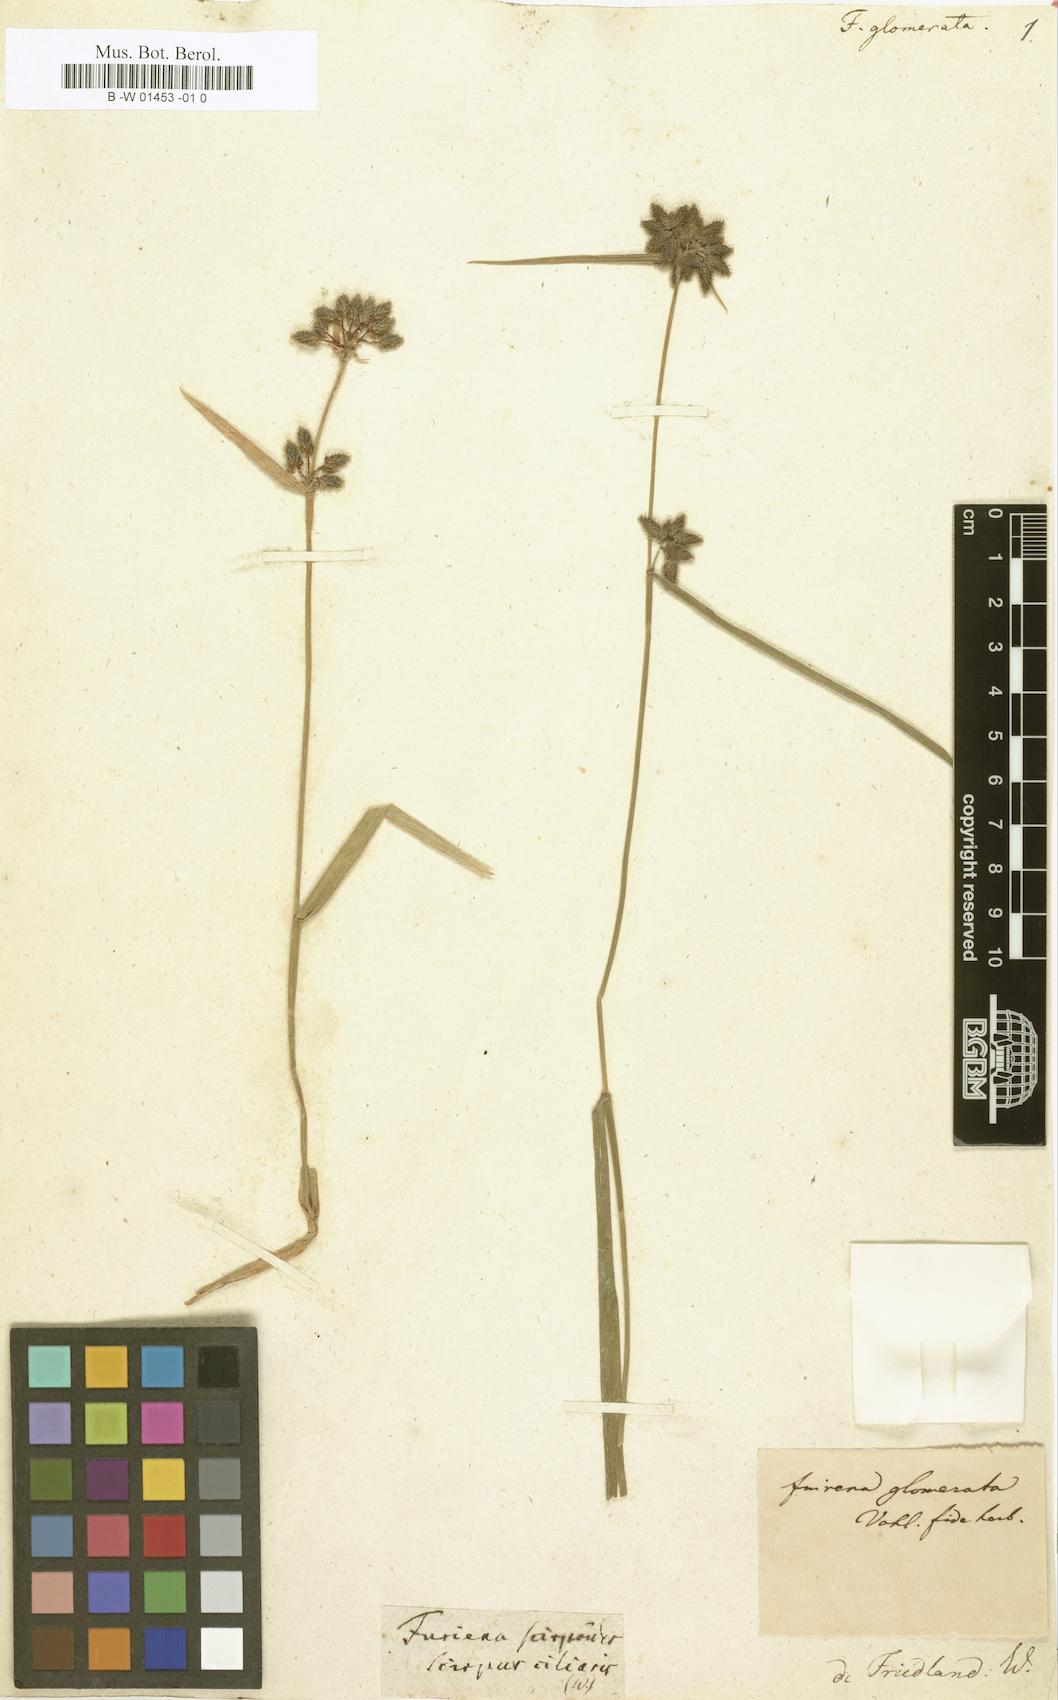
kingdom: Plantae
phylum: Tracheophyta
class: Liliopsida
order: Poales
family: Cyperaceae
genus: Fuirena
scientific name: Fuirena umbellata
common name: Yefen
